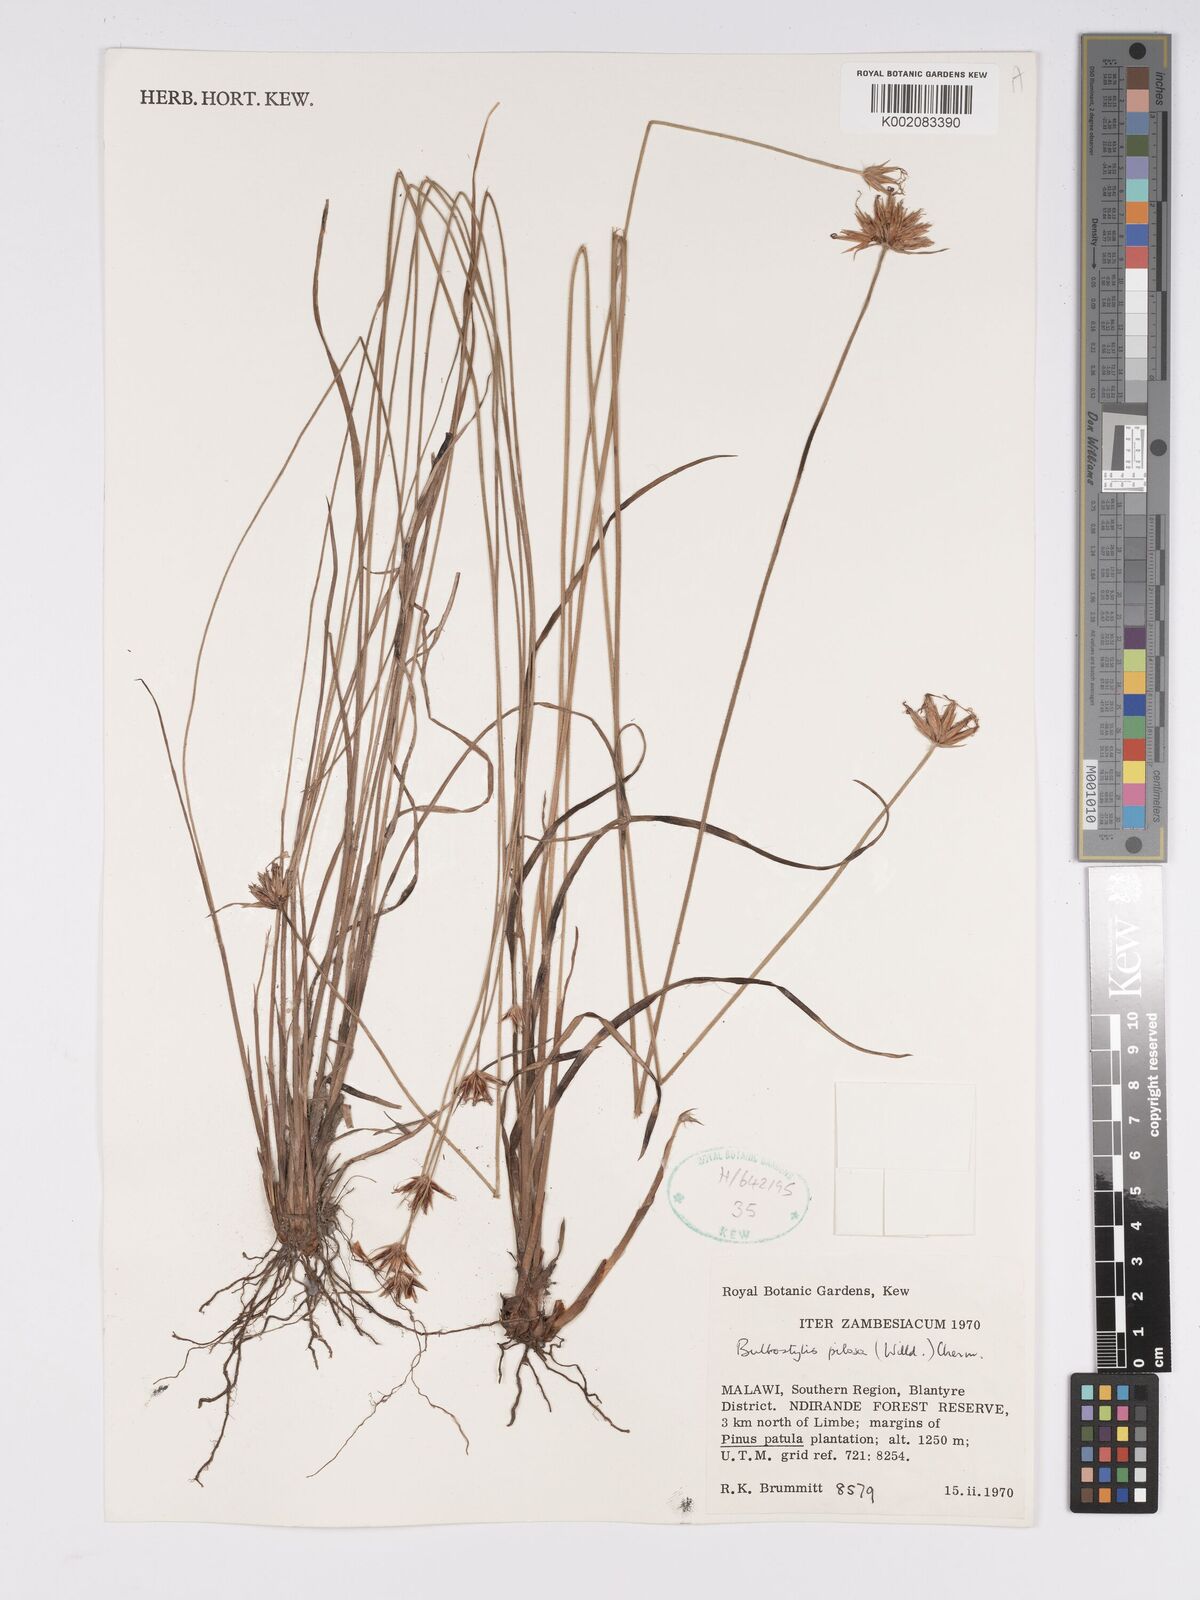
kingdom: Plantae
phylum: Tracheophyta
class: Liliopsida
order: Poales
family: Cyperaceae
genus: Bulbostylis
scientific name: Bulbostylis pilosa
